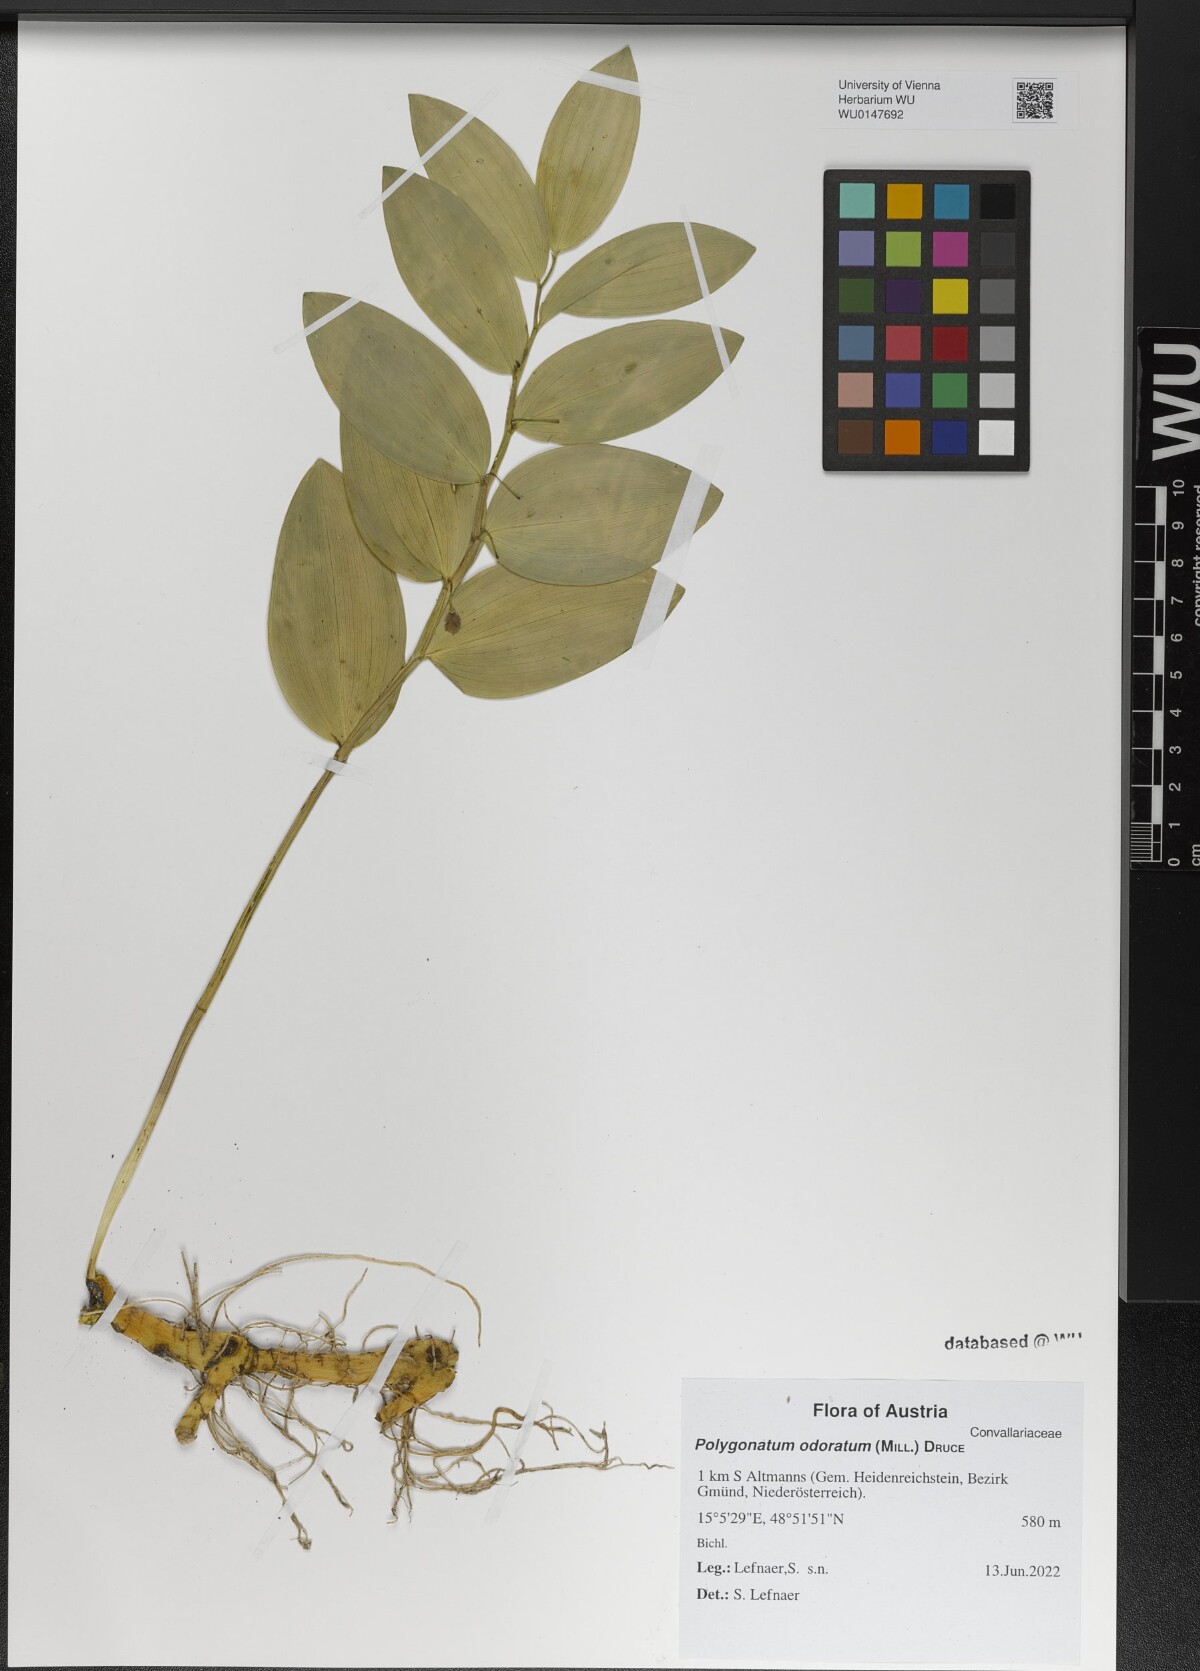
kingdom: Plantae
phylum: Tracheophyta
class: Liliopsida
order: Asparagales
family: Asparagaceae
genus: Polygonatum
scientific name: Polygonatum odoratum
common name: Angular solomon's-seal
